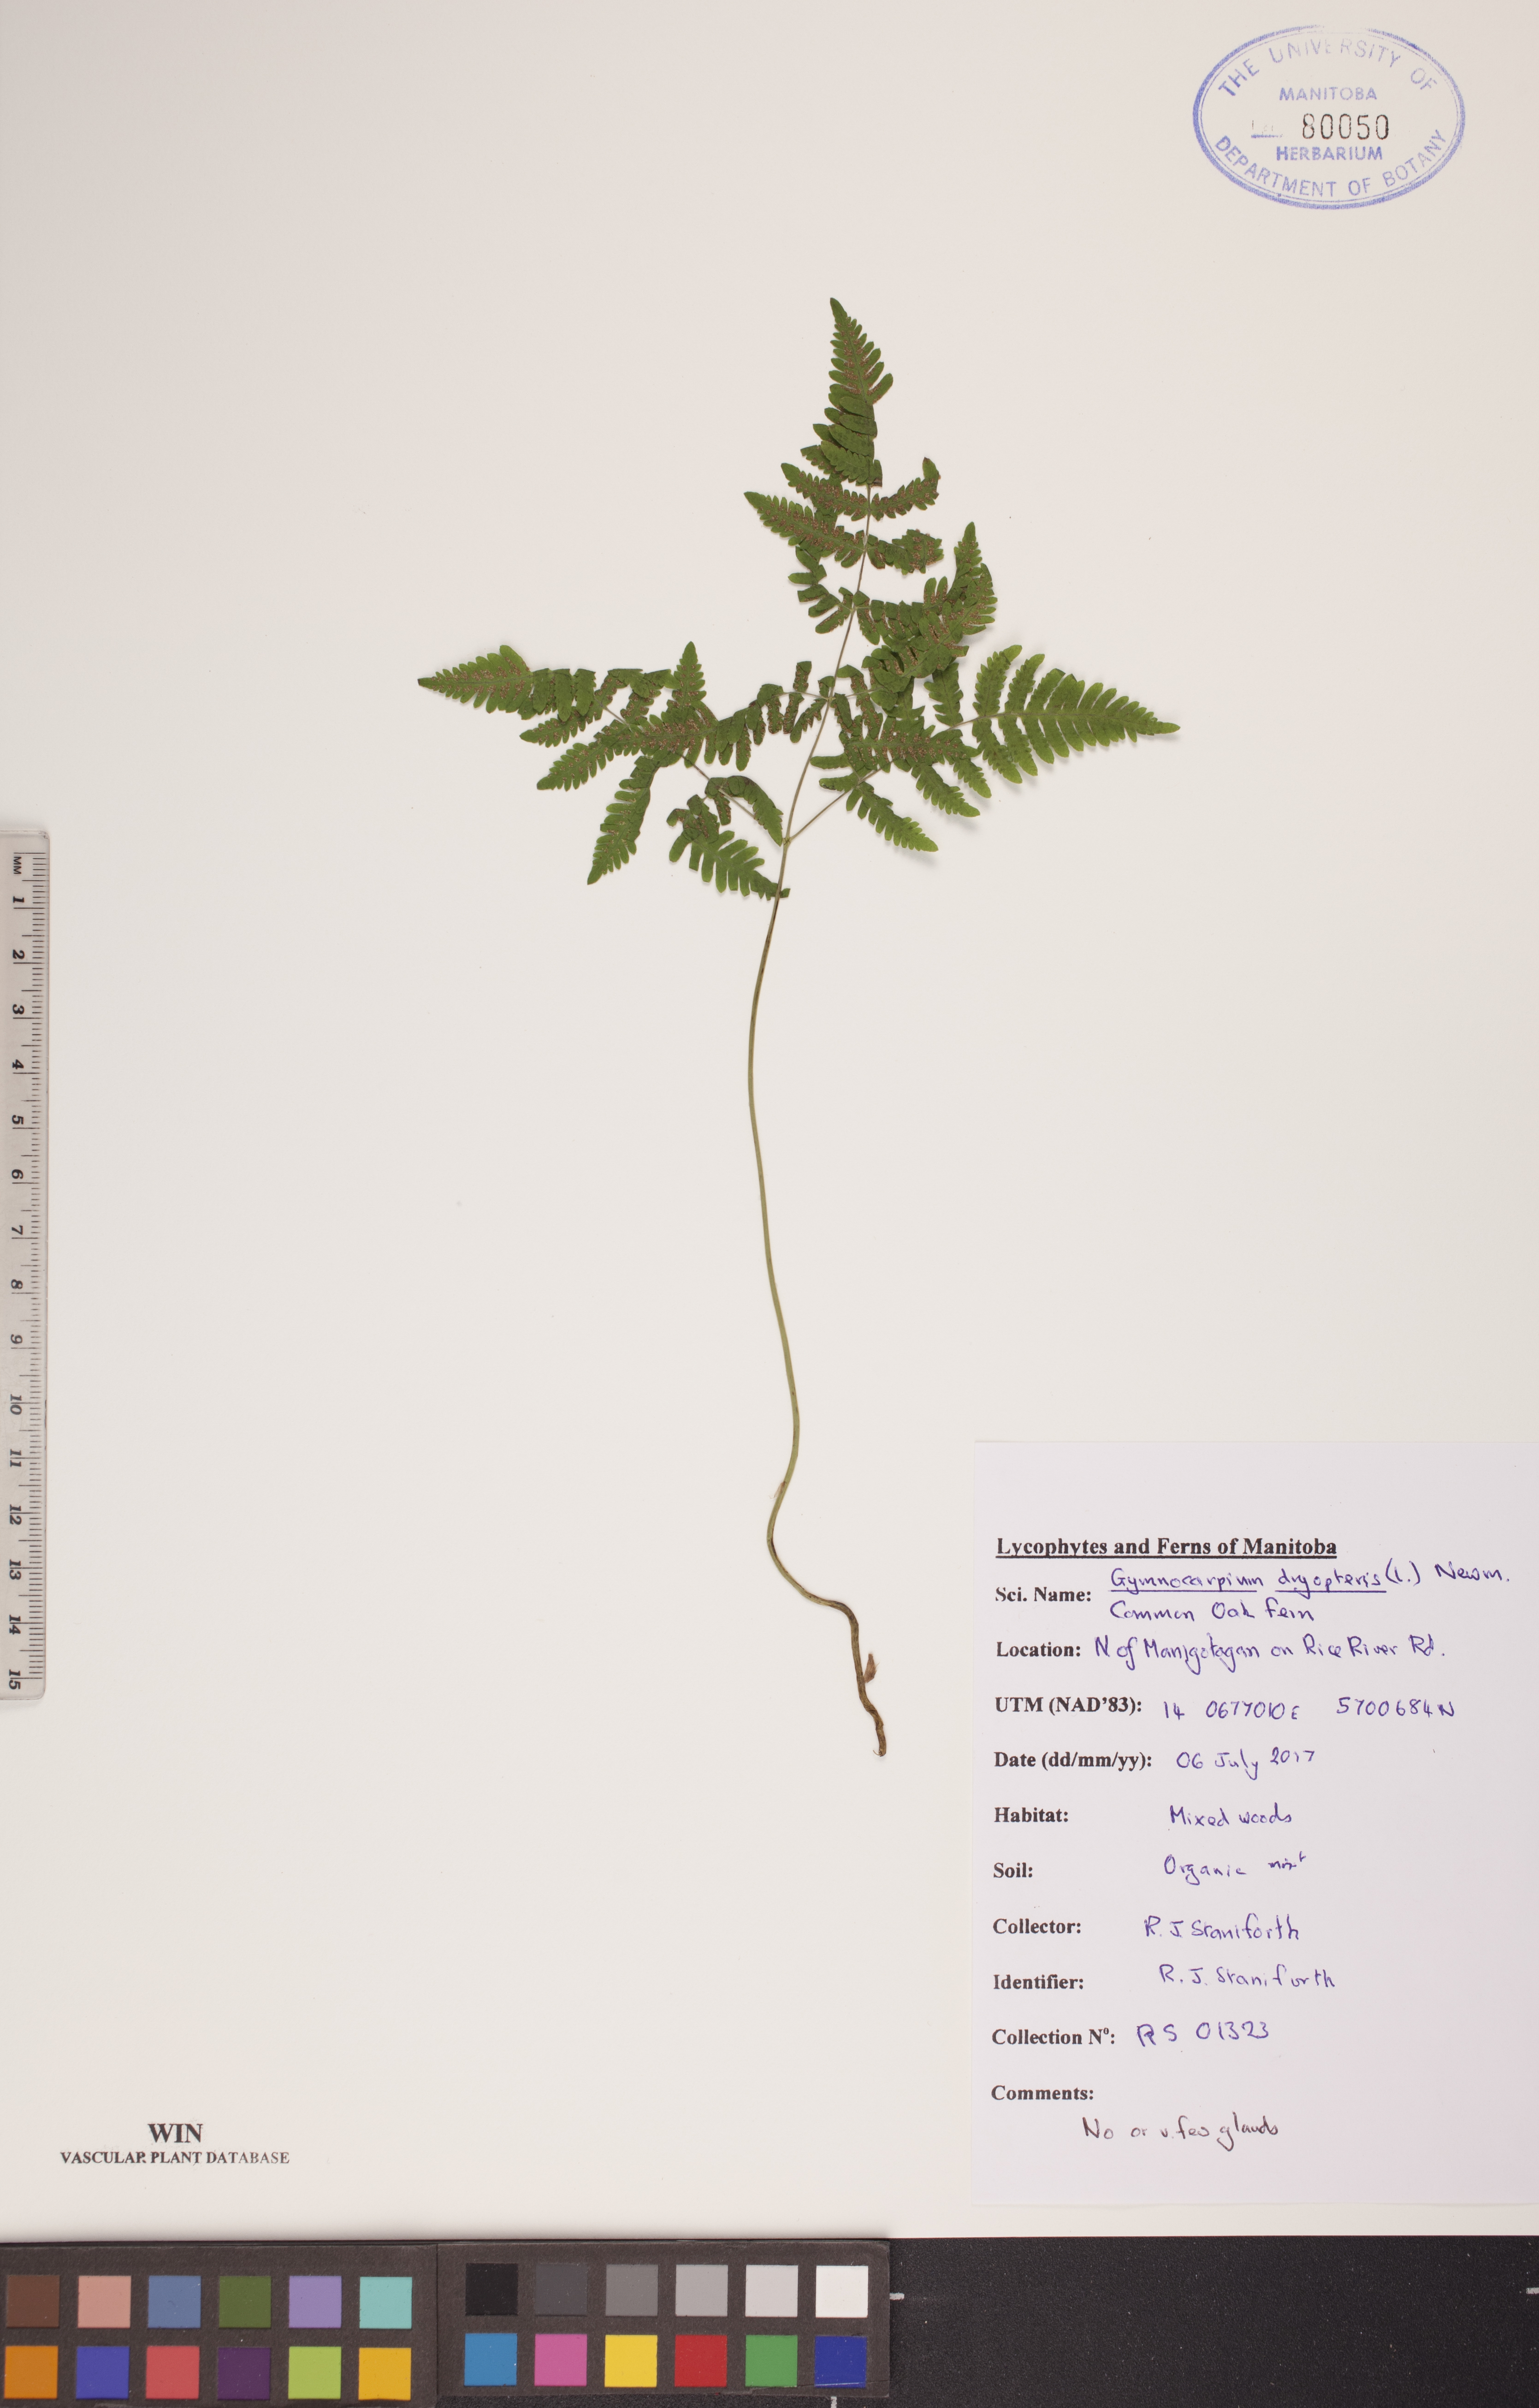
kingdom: Plantae
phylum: Tracheophyta
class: Polypodiopsida
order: Polypodiales
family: Cystopteridaceae
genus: Gymnocarpium
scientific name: Gymnocarpium dryopteris
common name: Oak fern
